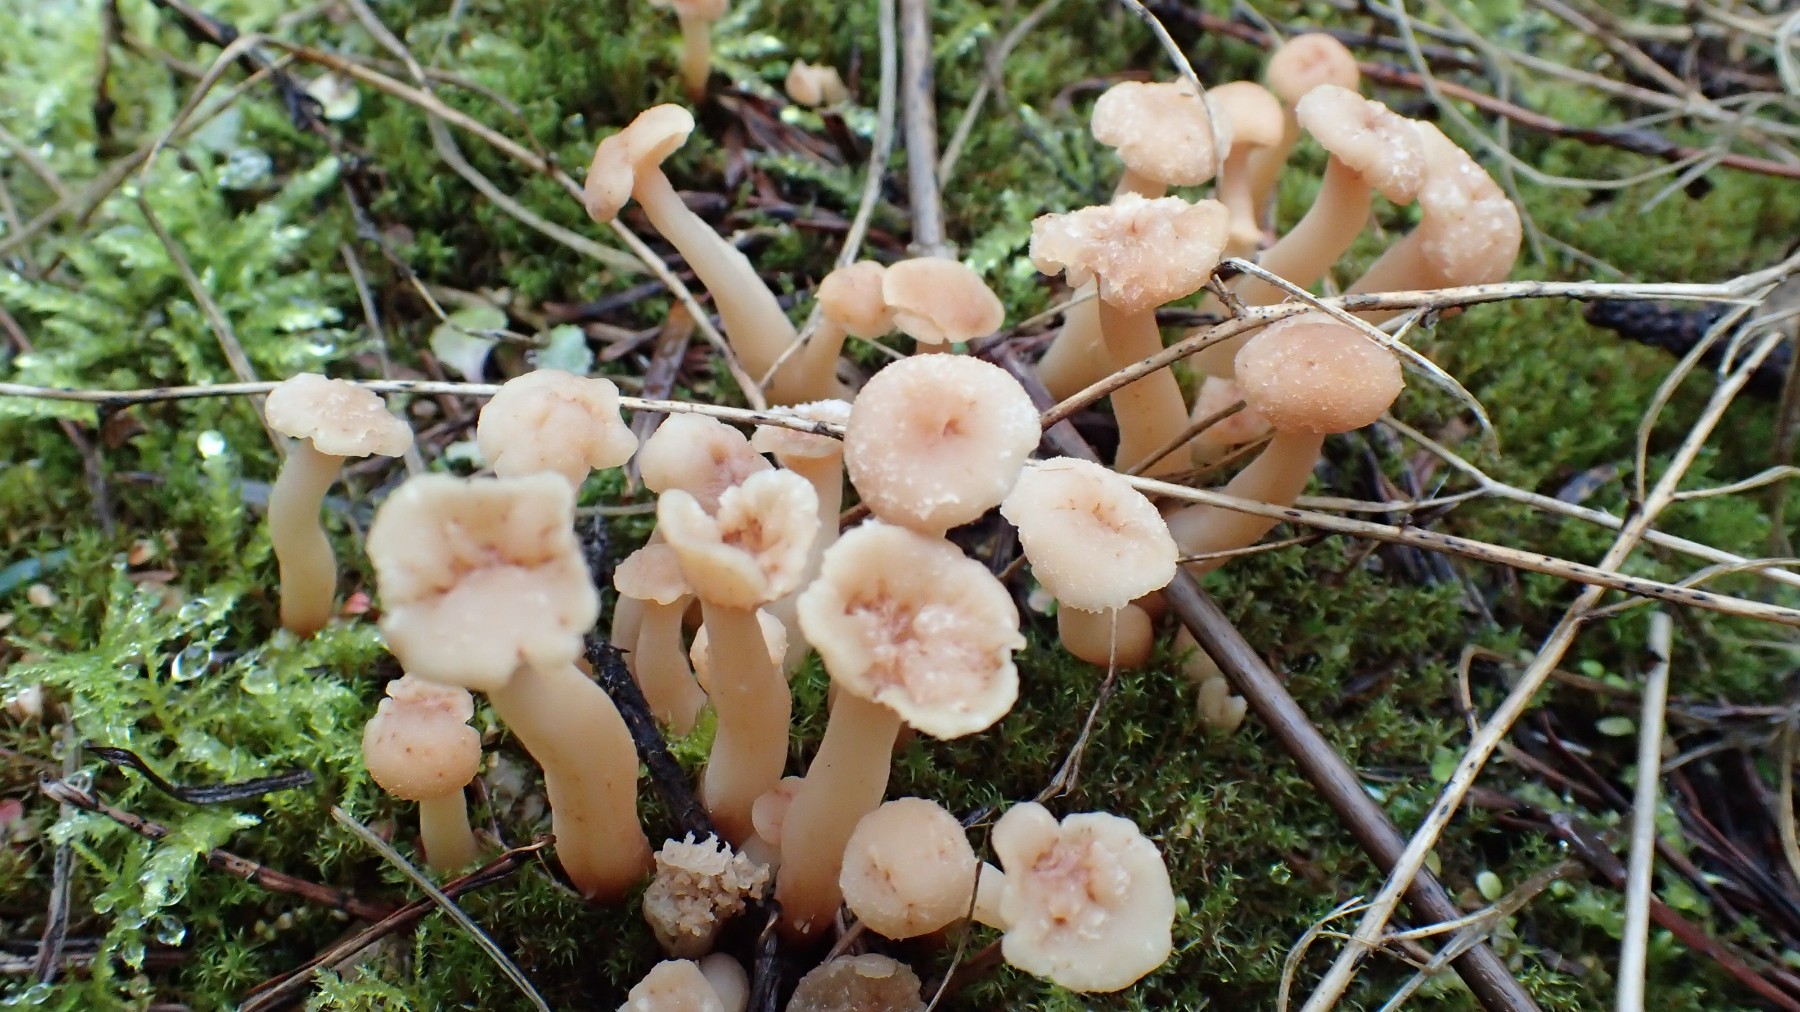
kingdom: Fungi
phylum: Basidiomycota
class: Agaricomycetes
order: Agaricales
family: Hydnangiaceae
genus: Laccaria
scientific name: Laccaria laccata
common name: rød ametysthat
